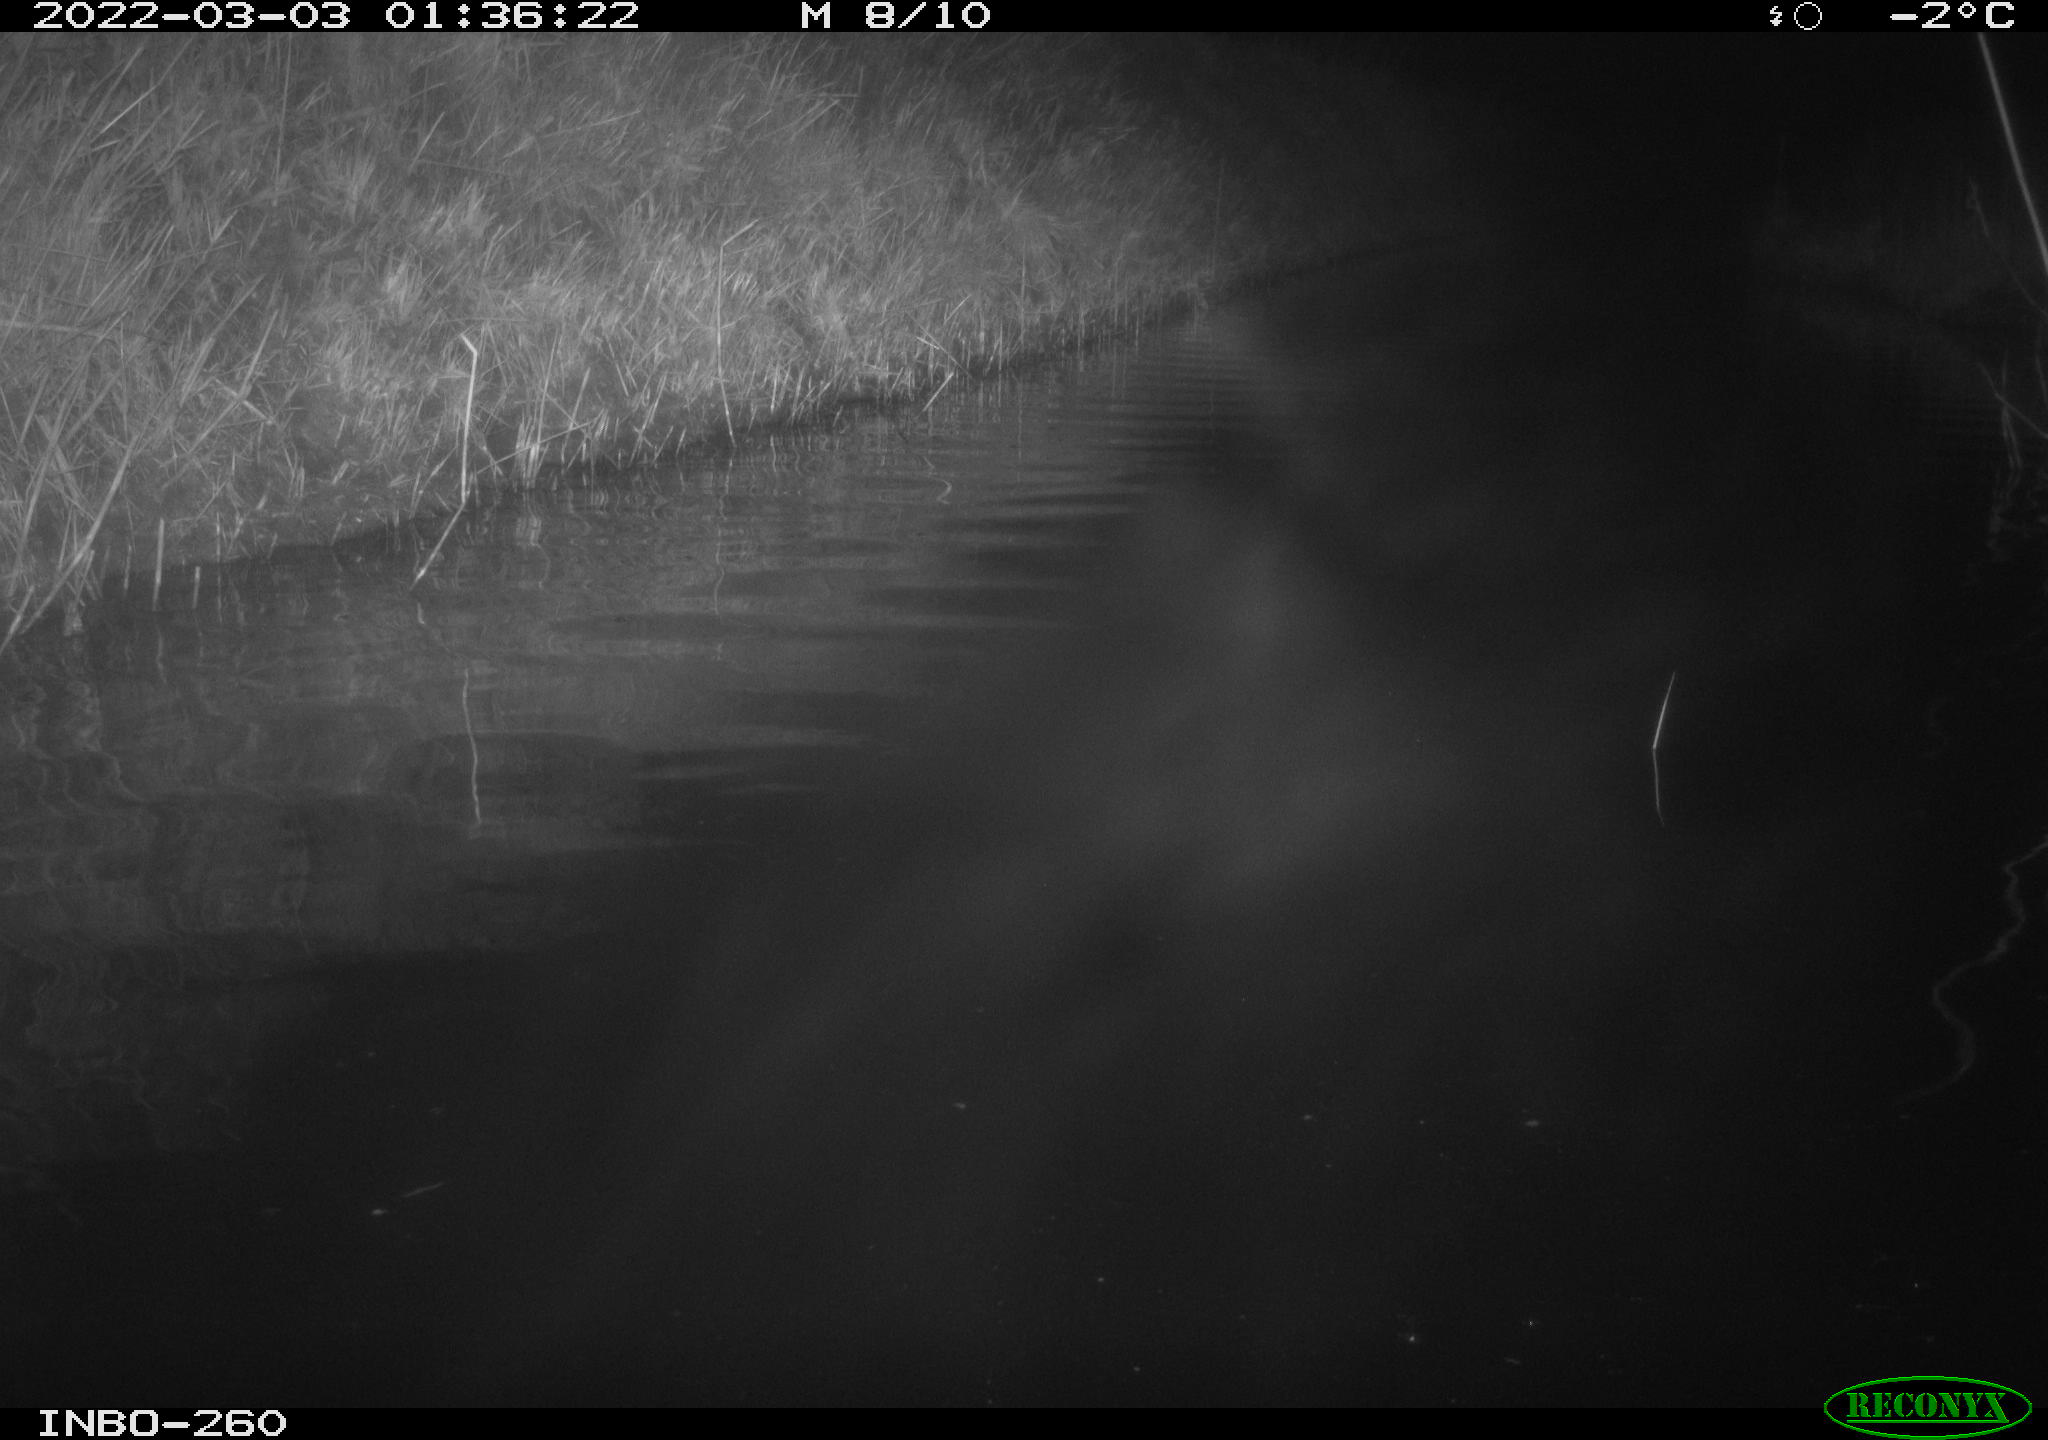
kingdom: Animalia
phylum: Chordata
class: Mammalia
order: Rodentia
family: Cricetidae
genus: Ondatra
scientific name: Ondatra zibethicus
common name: Muskrat
